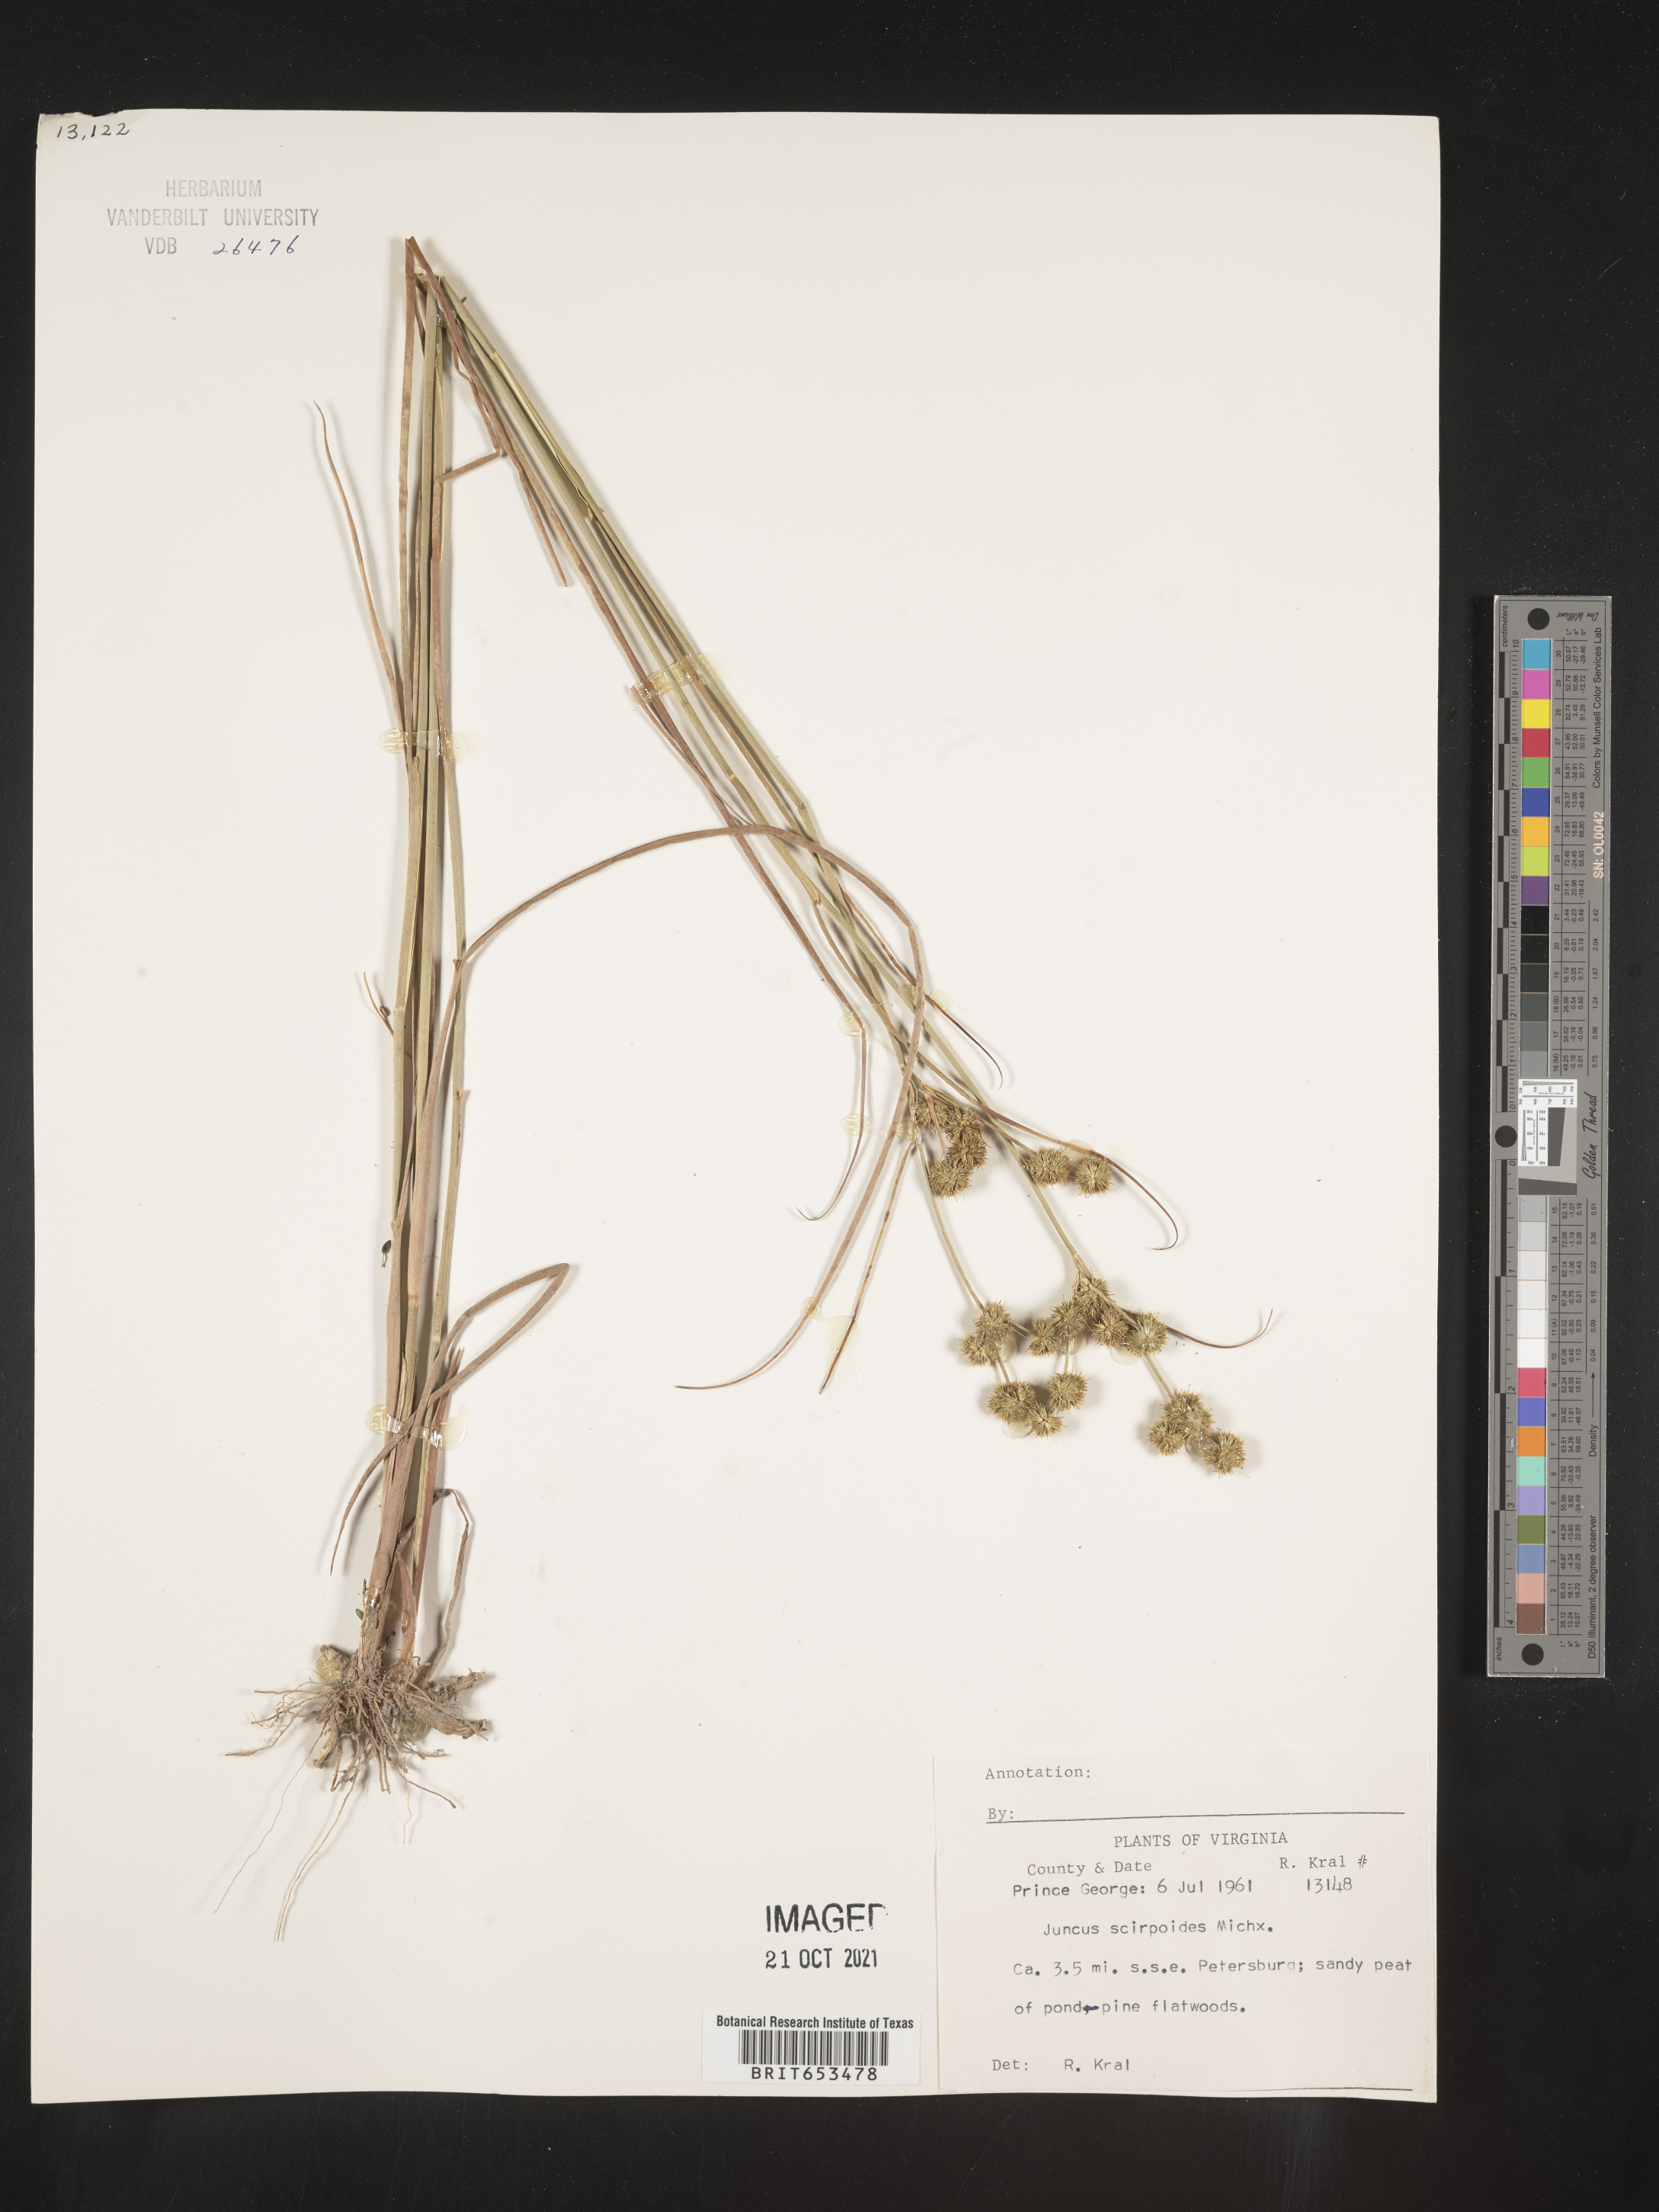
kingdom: Plantae
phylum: Tracheophyta
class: Liliopsida
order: Poales
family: Juncaceae
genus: Juncus
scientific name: Juncus scirpoides
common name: Needlepod rush
